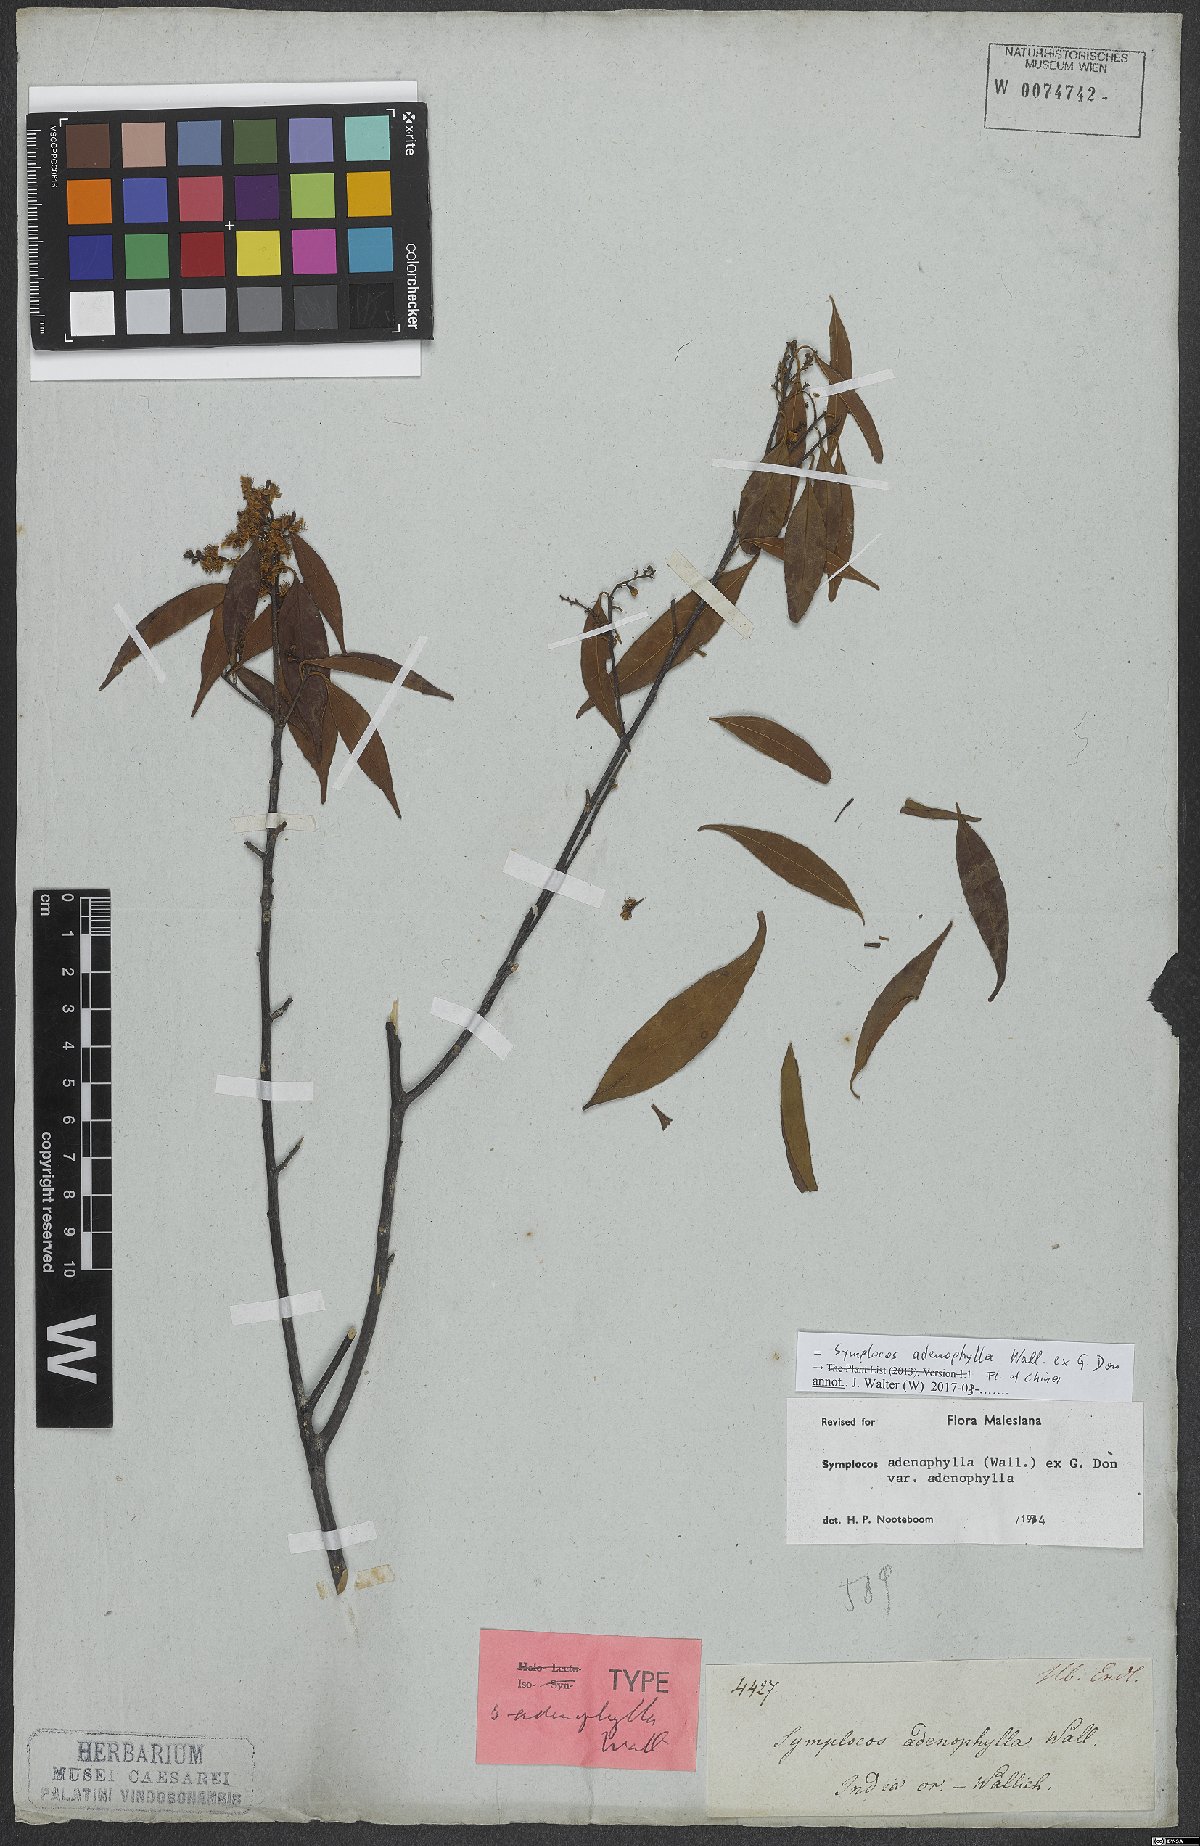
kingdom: Plantae
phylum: Tracheophyta
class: Magnoliopsida
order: Ericales
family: Symplocaceae
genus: Symplocos
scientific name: Symplocos adenophylla
